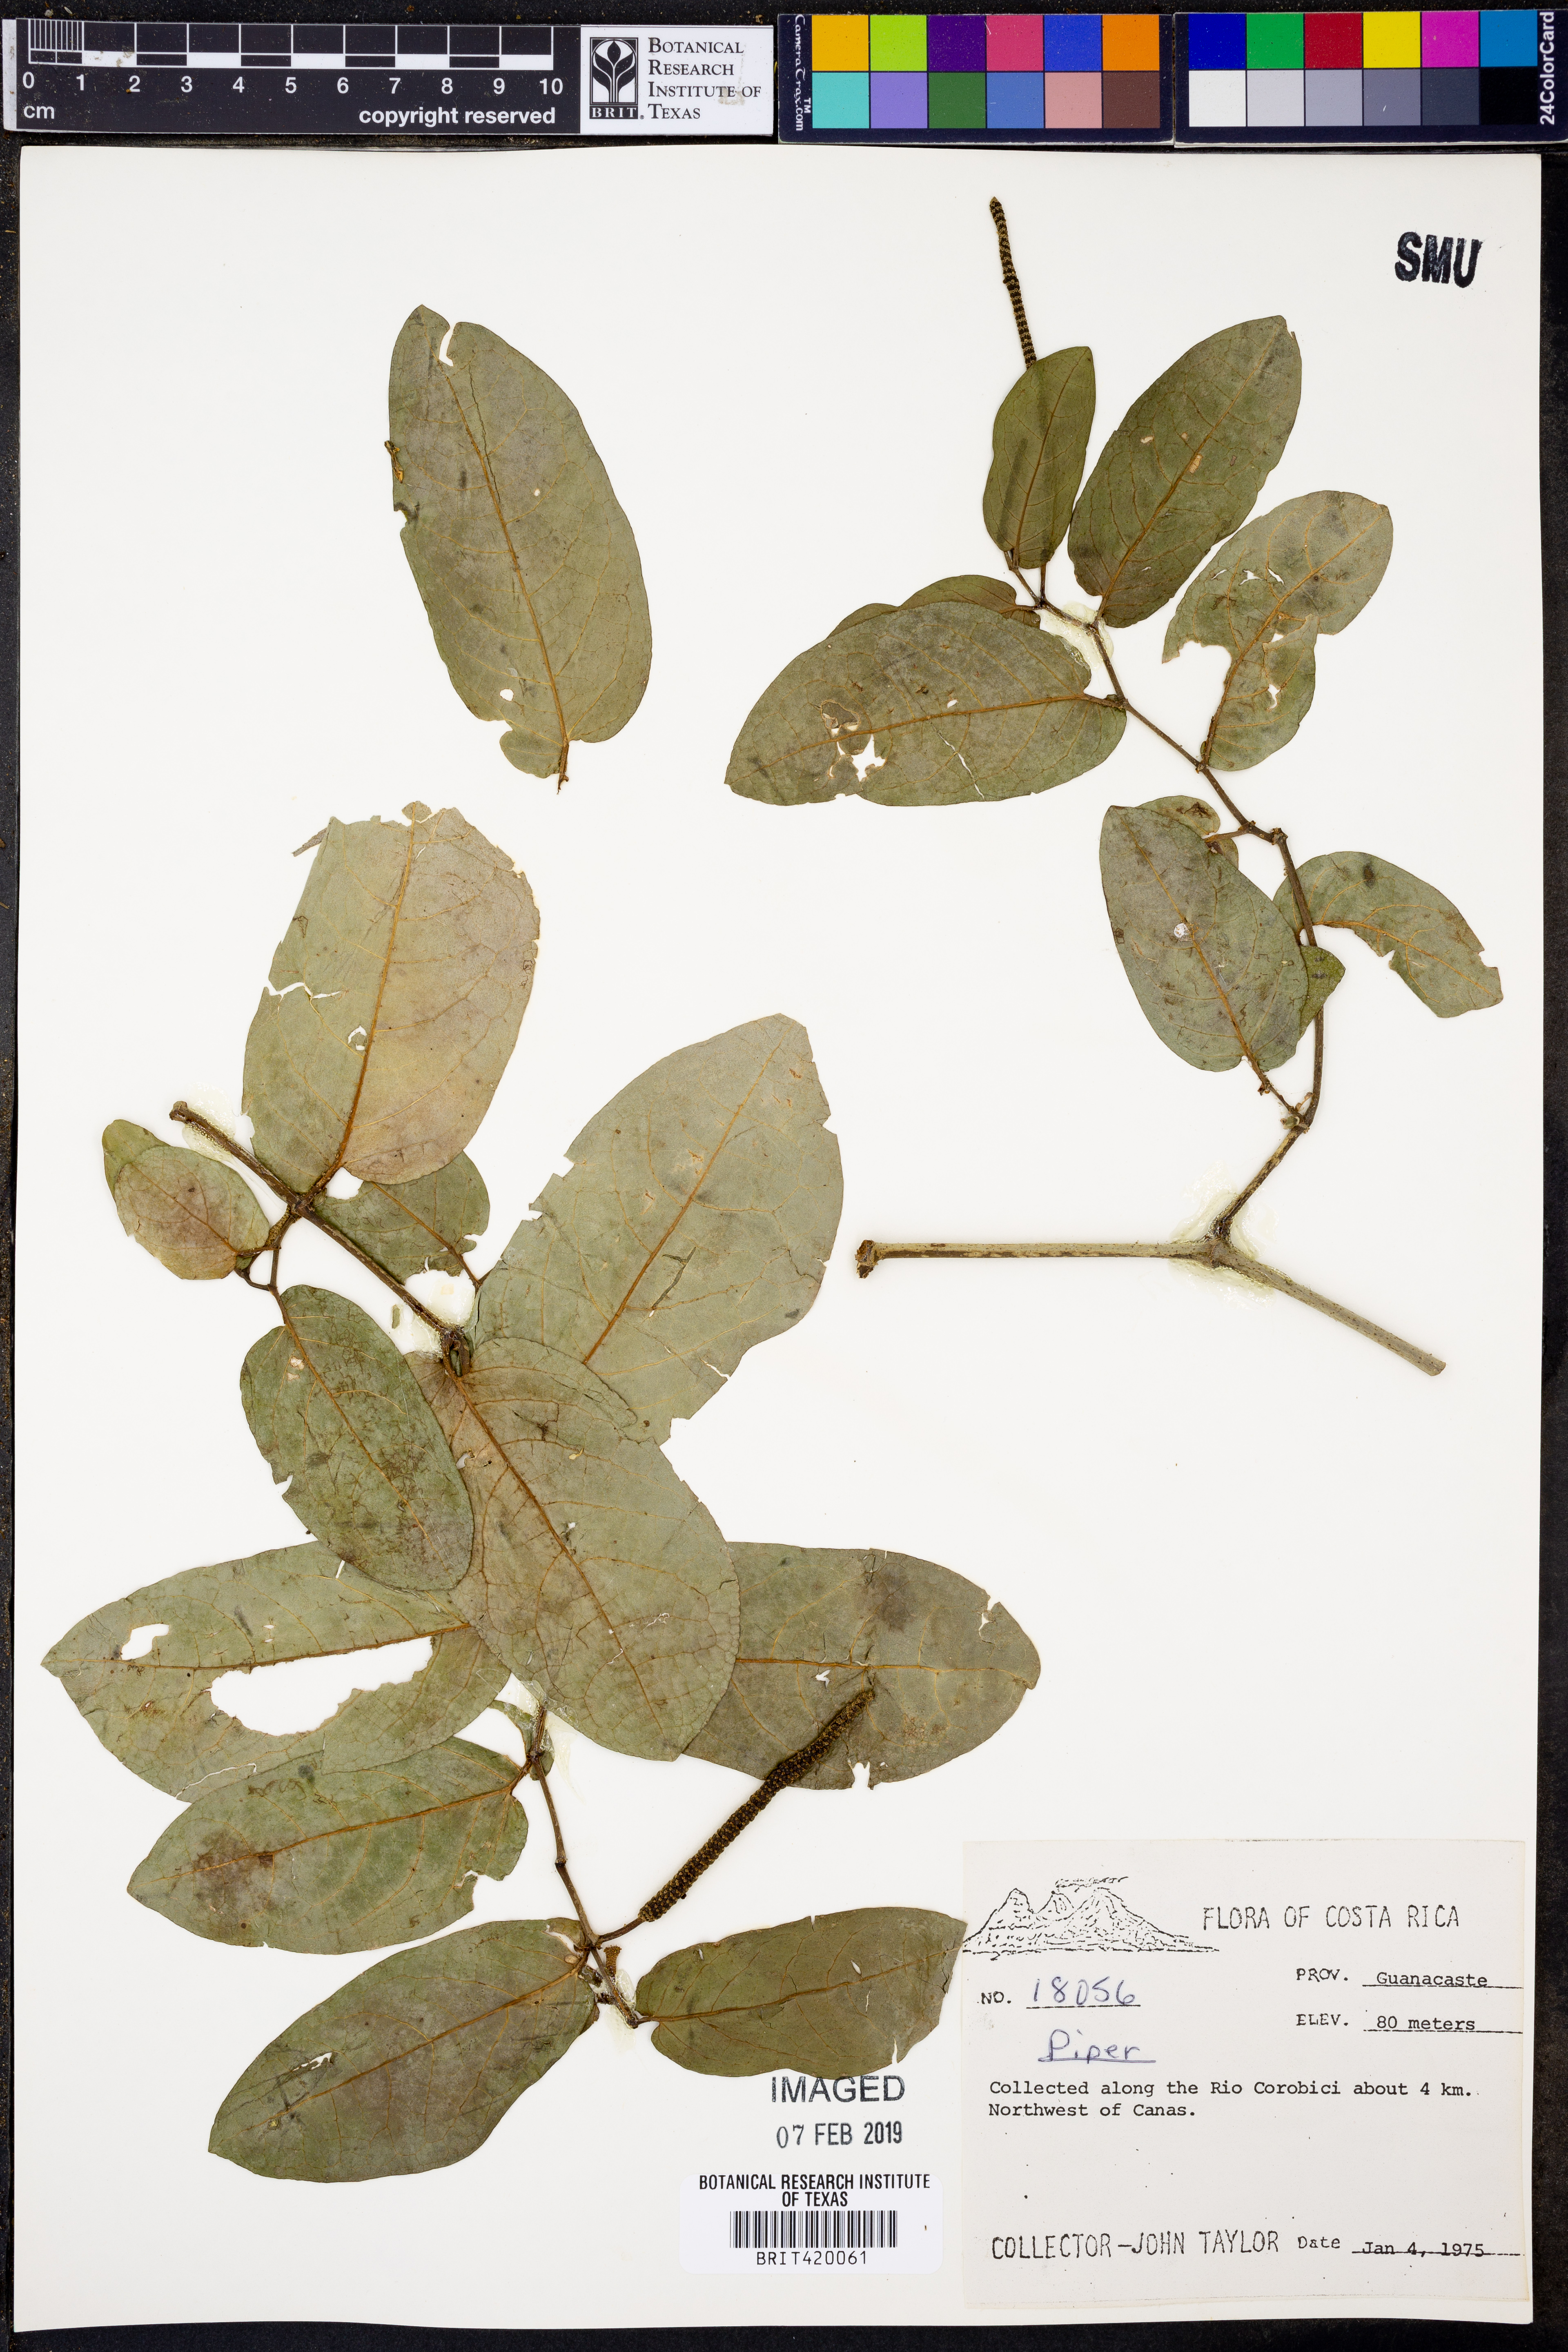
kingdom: Plantae
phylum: Tracheophyta
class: Magnoliopsida
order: Piperales
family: Piperaceae
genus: Piper
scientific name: Piper
